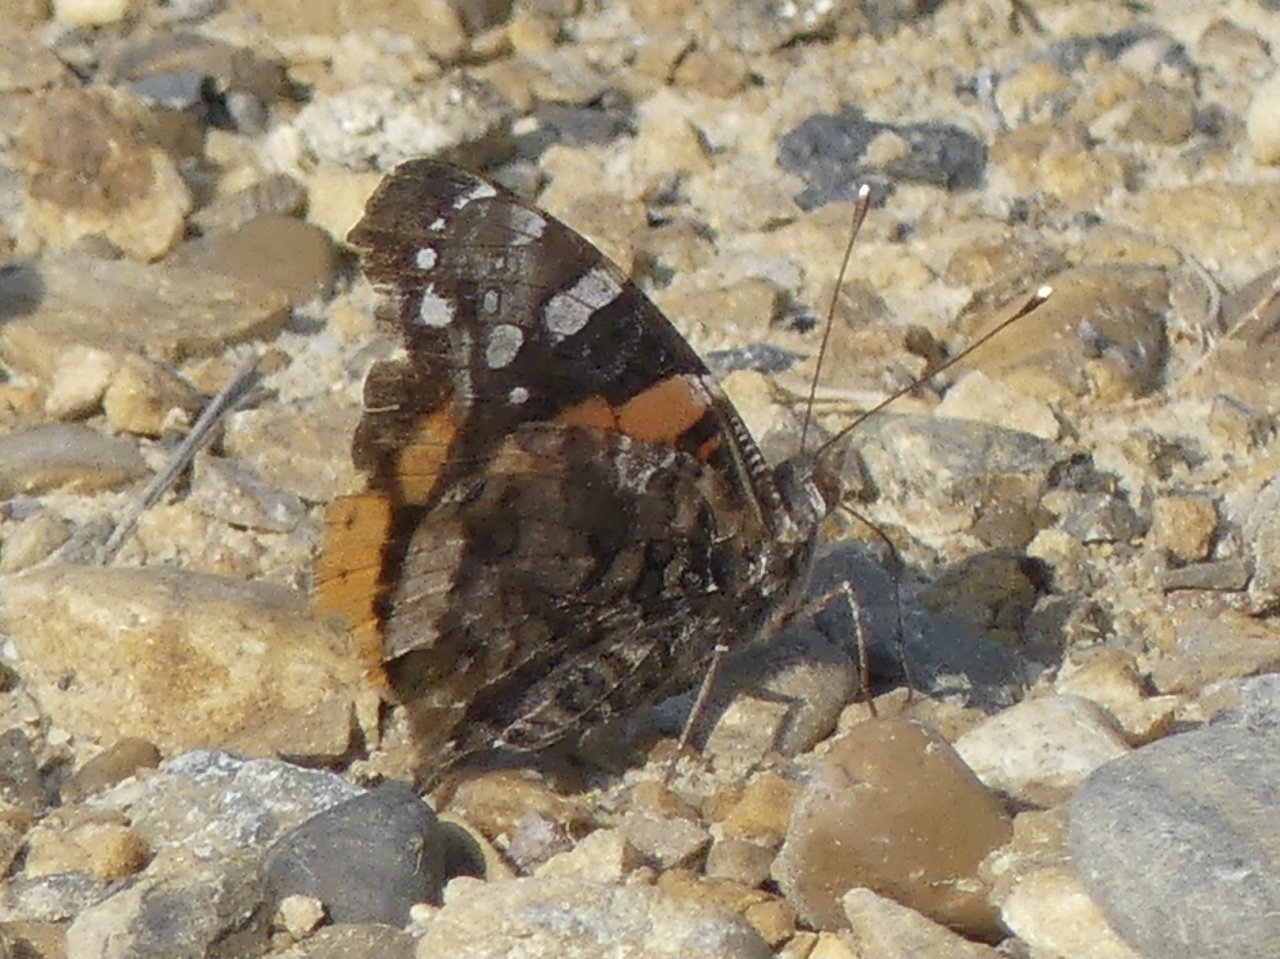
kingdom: Animalia
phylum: Arthropoda
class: Insecta
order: Lepidoptera
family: Nymphalidae
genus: Vanessa
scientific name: Vanessa atalanta
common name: Red Admiral
